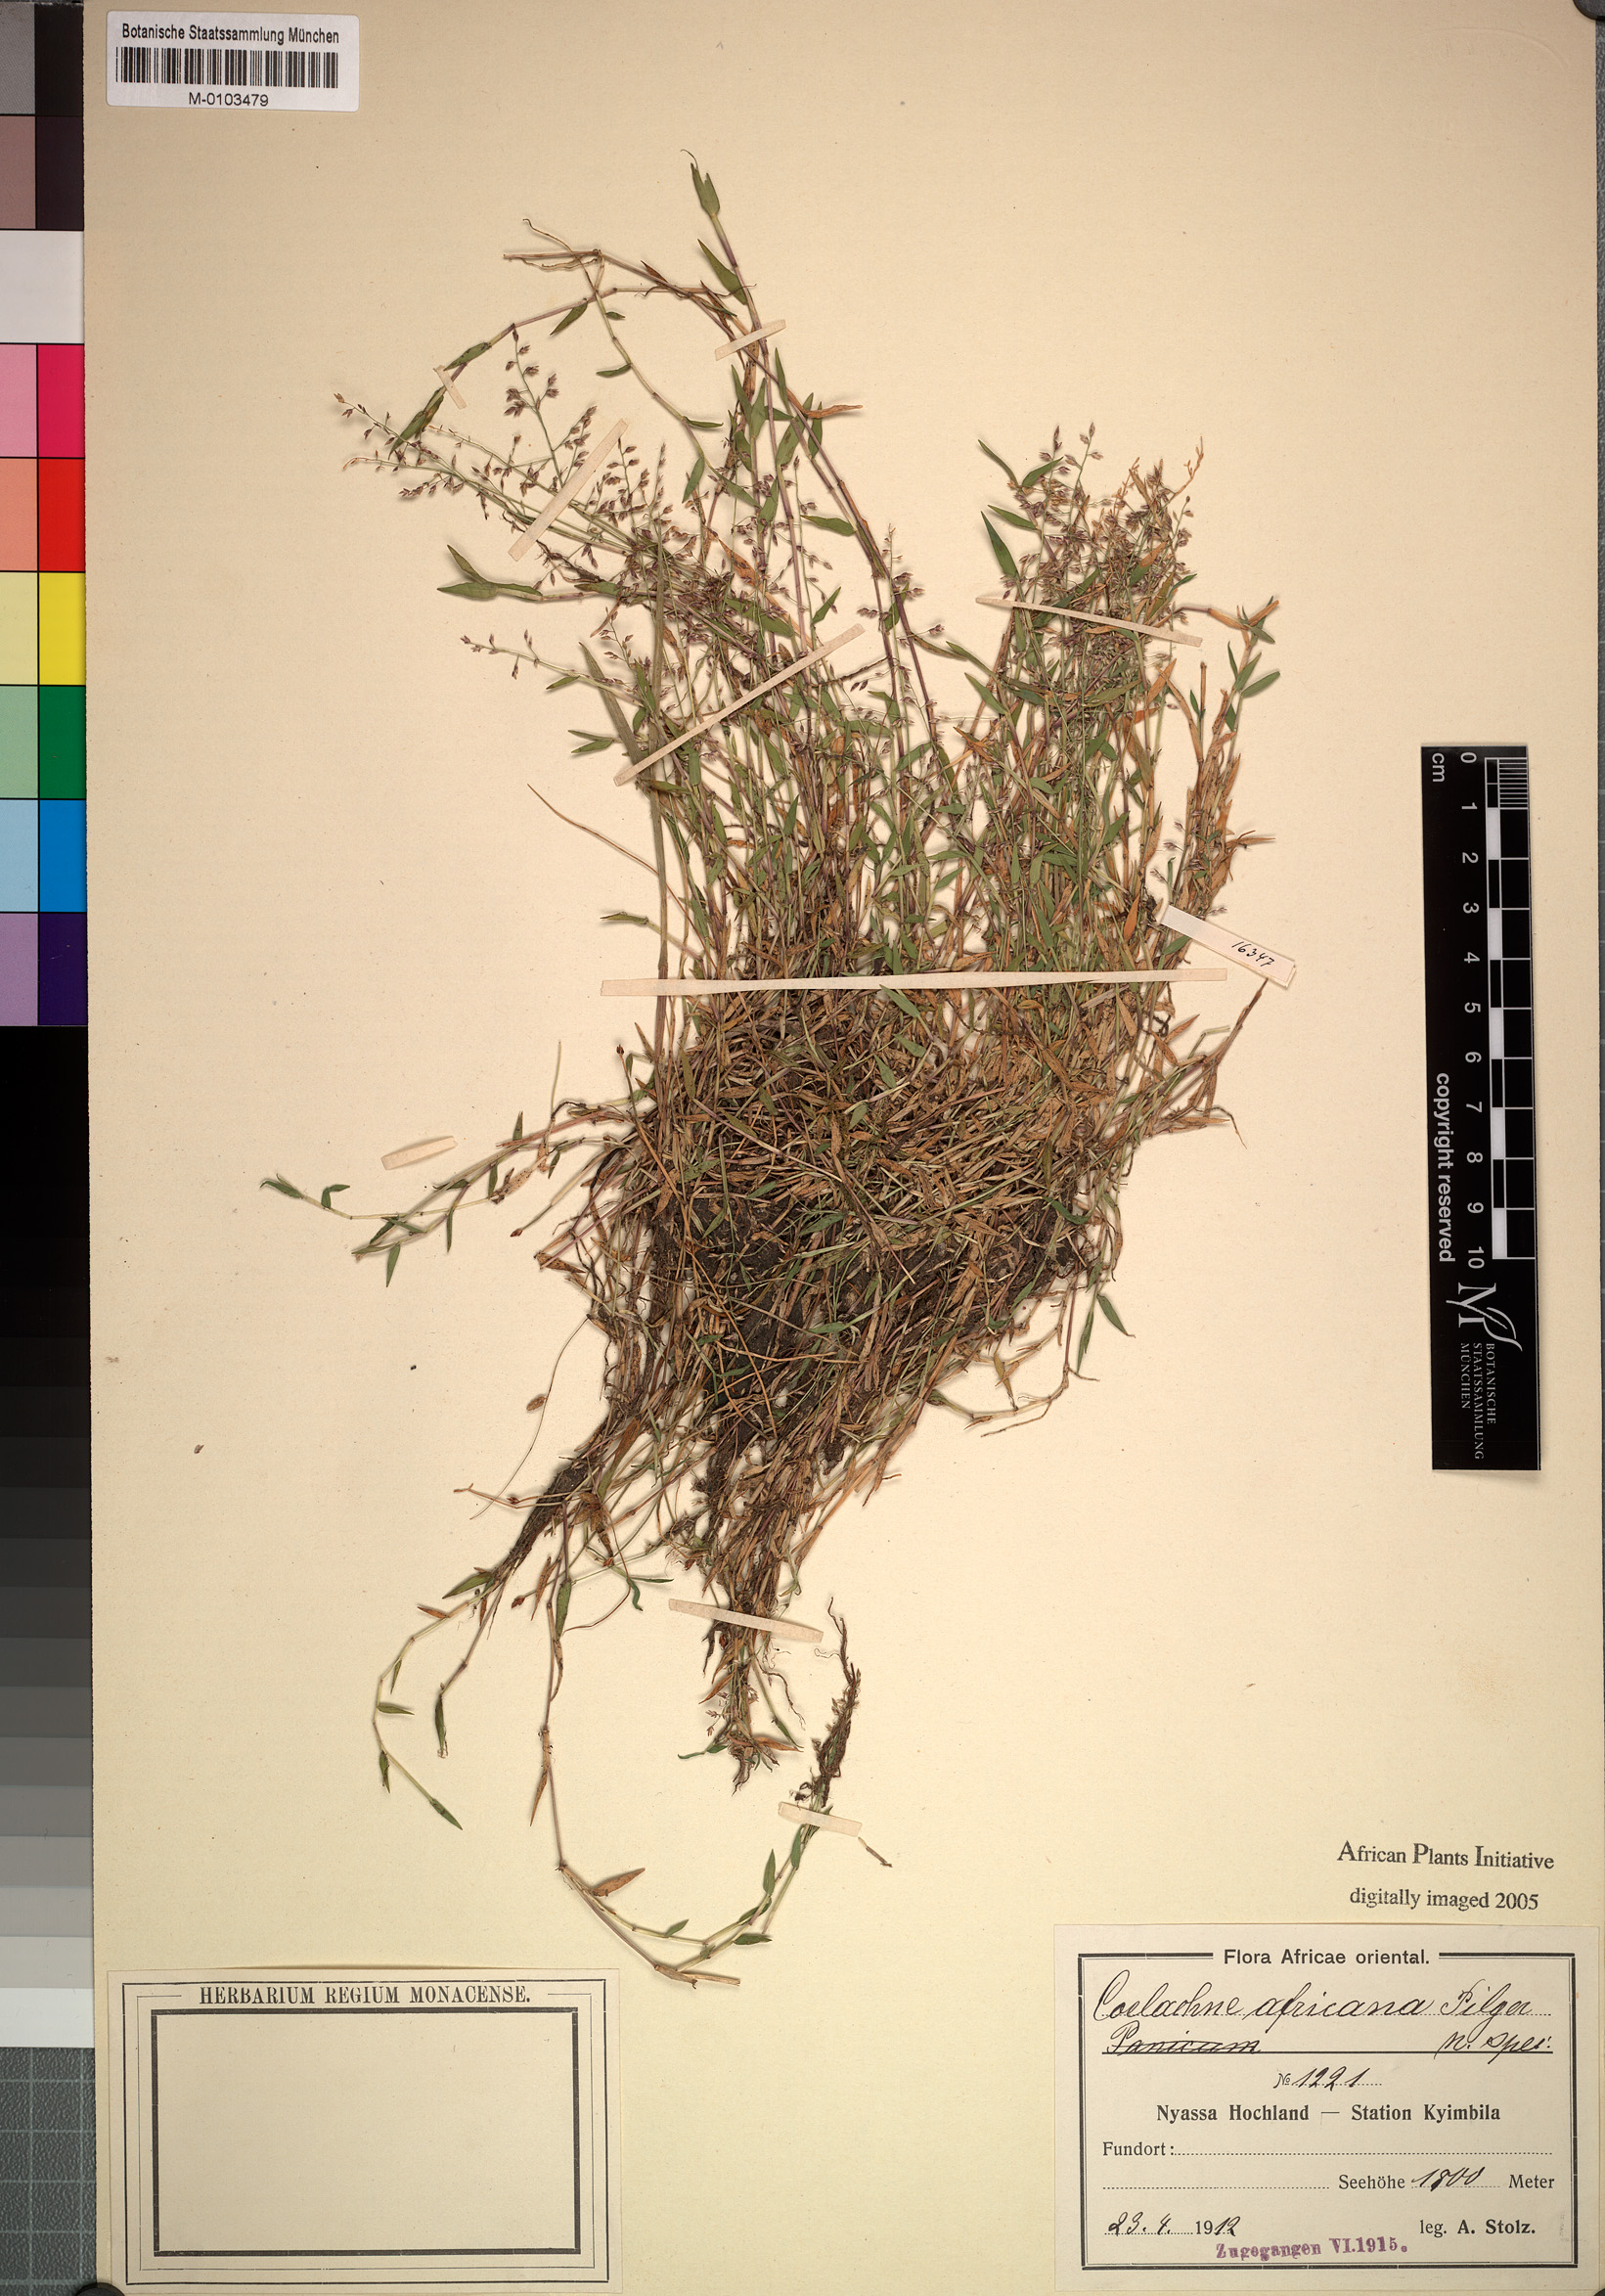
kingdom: Plantae
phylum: Tracheophyta
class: Liliopsida
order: Poales
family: Poaceae
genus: Coelachne
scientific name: Coelachne africana
